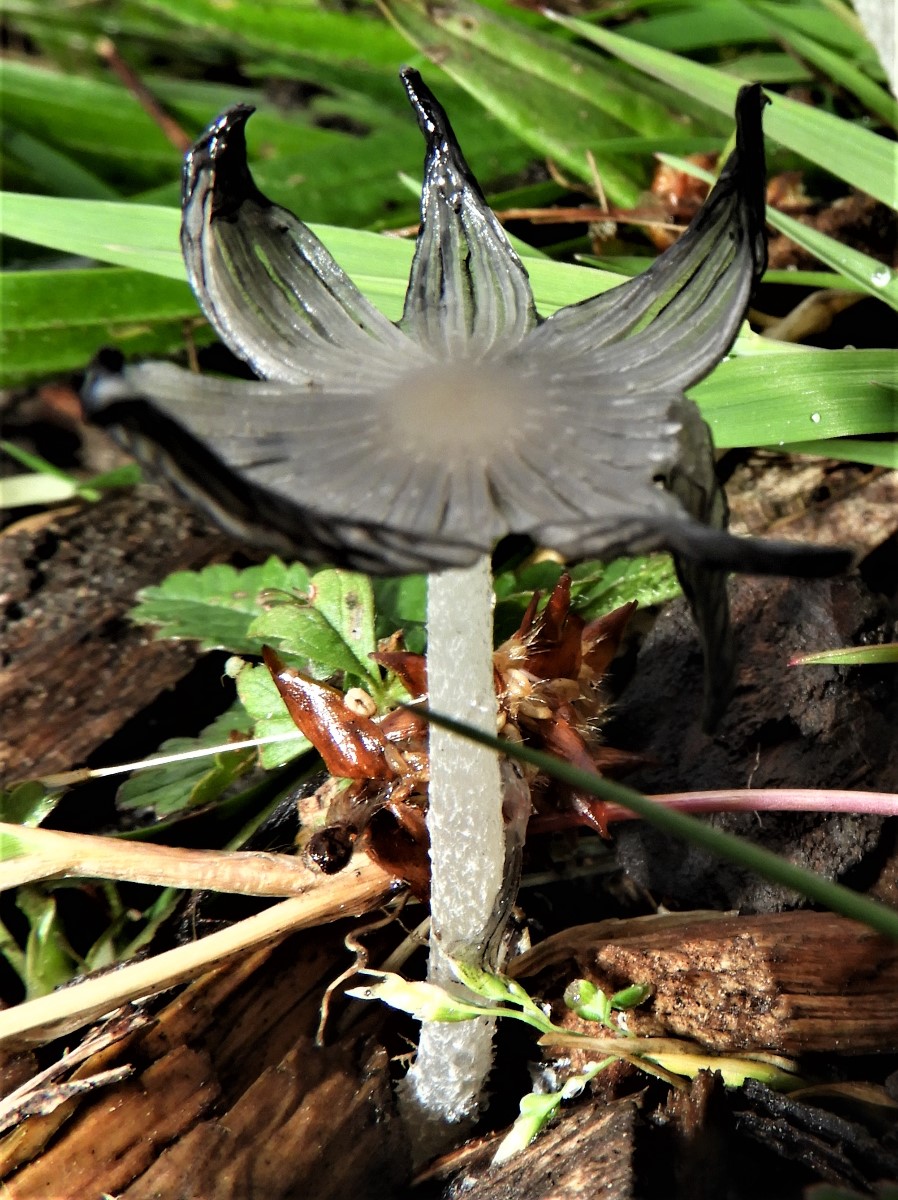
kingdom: Fungi
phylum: Basidiomycota
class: Agaricomycetes
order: Agaricales
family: Psathyrellaceae
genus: Coprinopsis
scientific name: Coprinopsis lagopus
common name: dunstokket blækhat
